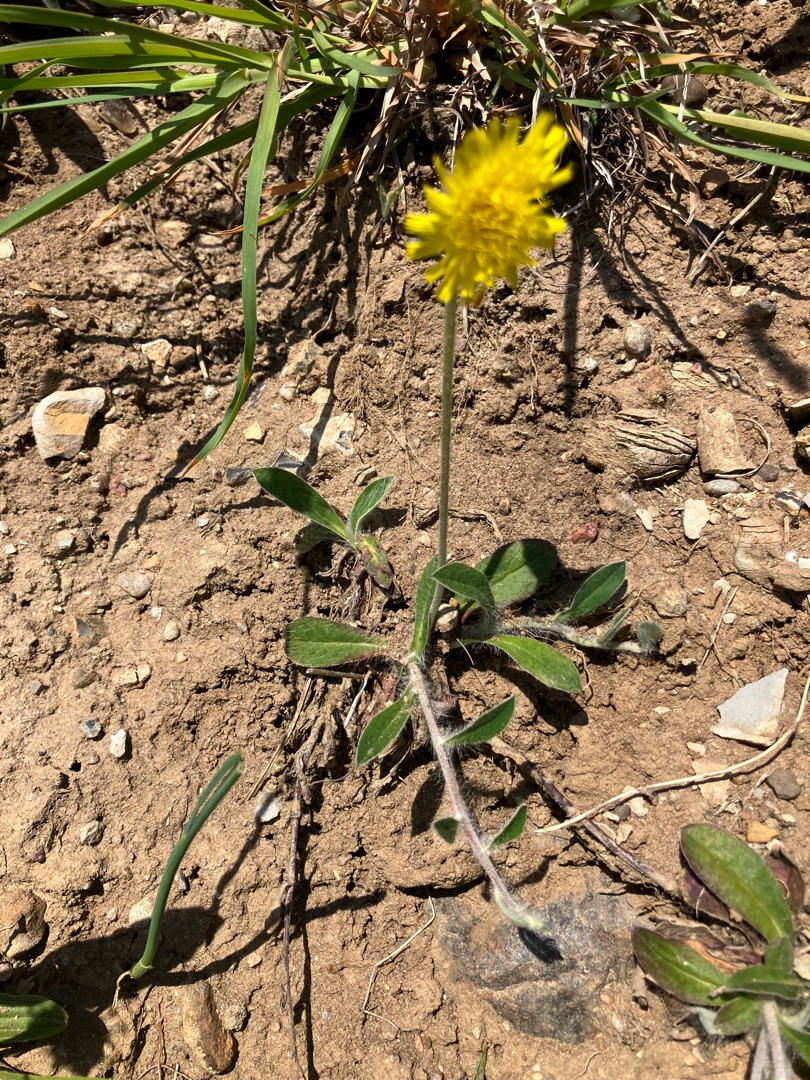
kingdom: Plantae
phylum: Tracheophyta
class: Magnoliopsida
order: Asterales
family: Asteraceae
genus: Pilosella
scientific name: Pilosella officinarum
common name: Håret høgeurt
